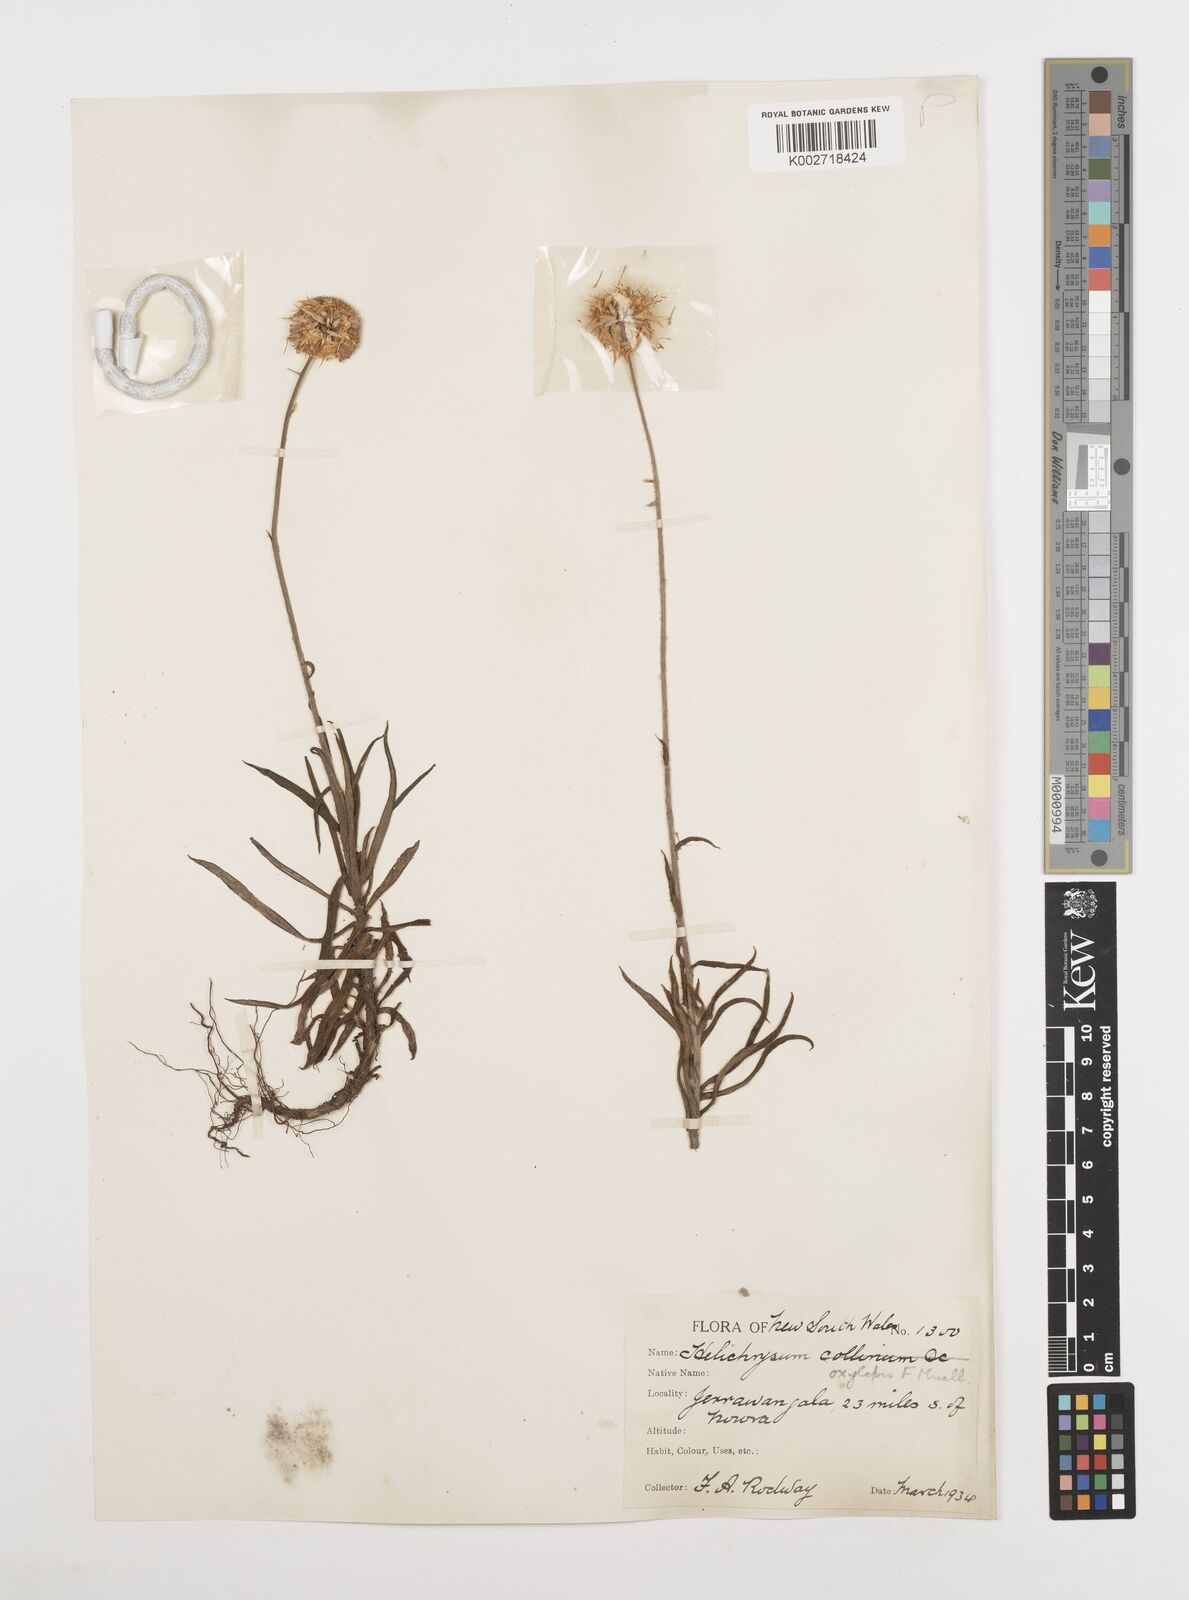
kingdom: Plantae
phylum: Tracheophyta
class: Magnoliopsida
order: Asterales
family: Asteraceae
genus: Coronidium
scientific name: Coronidium oxylepis
